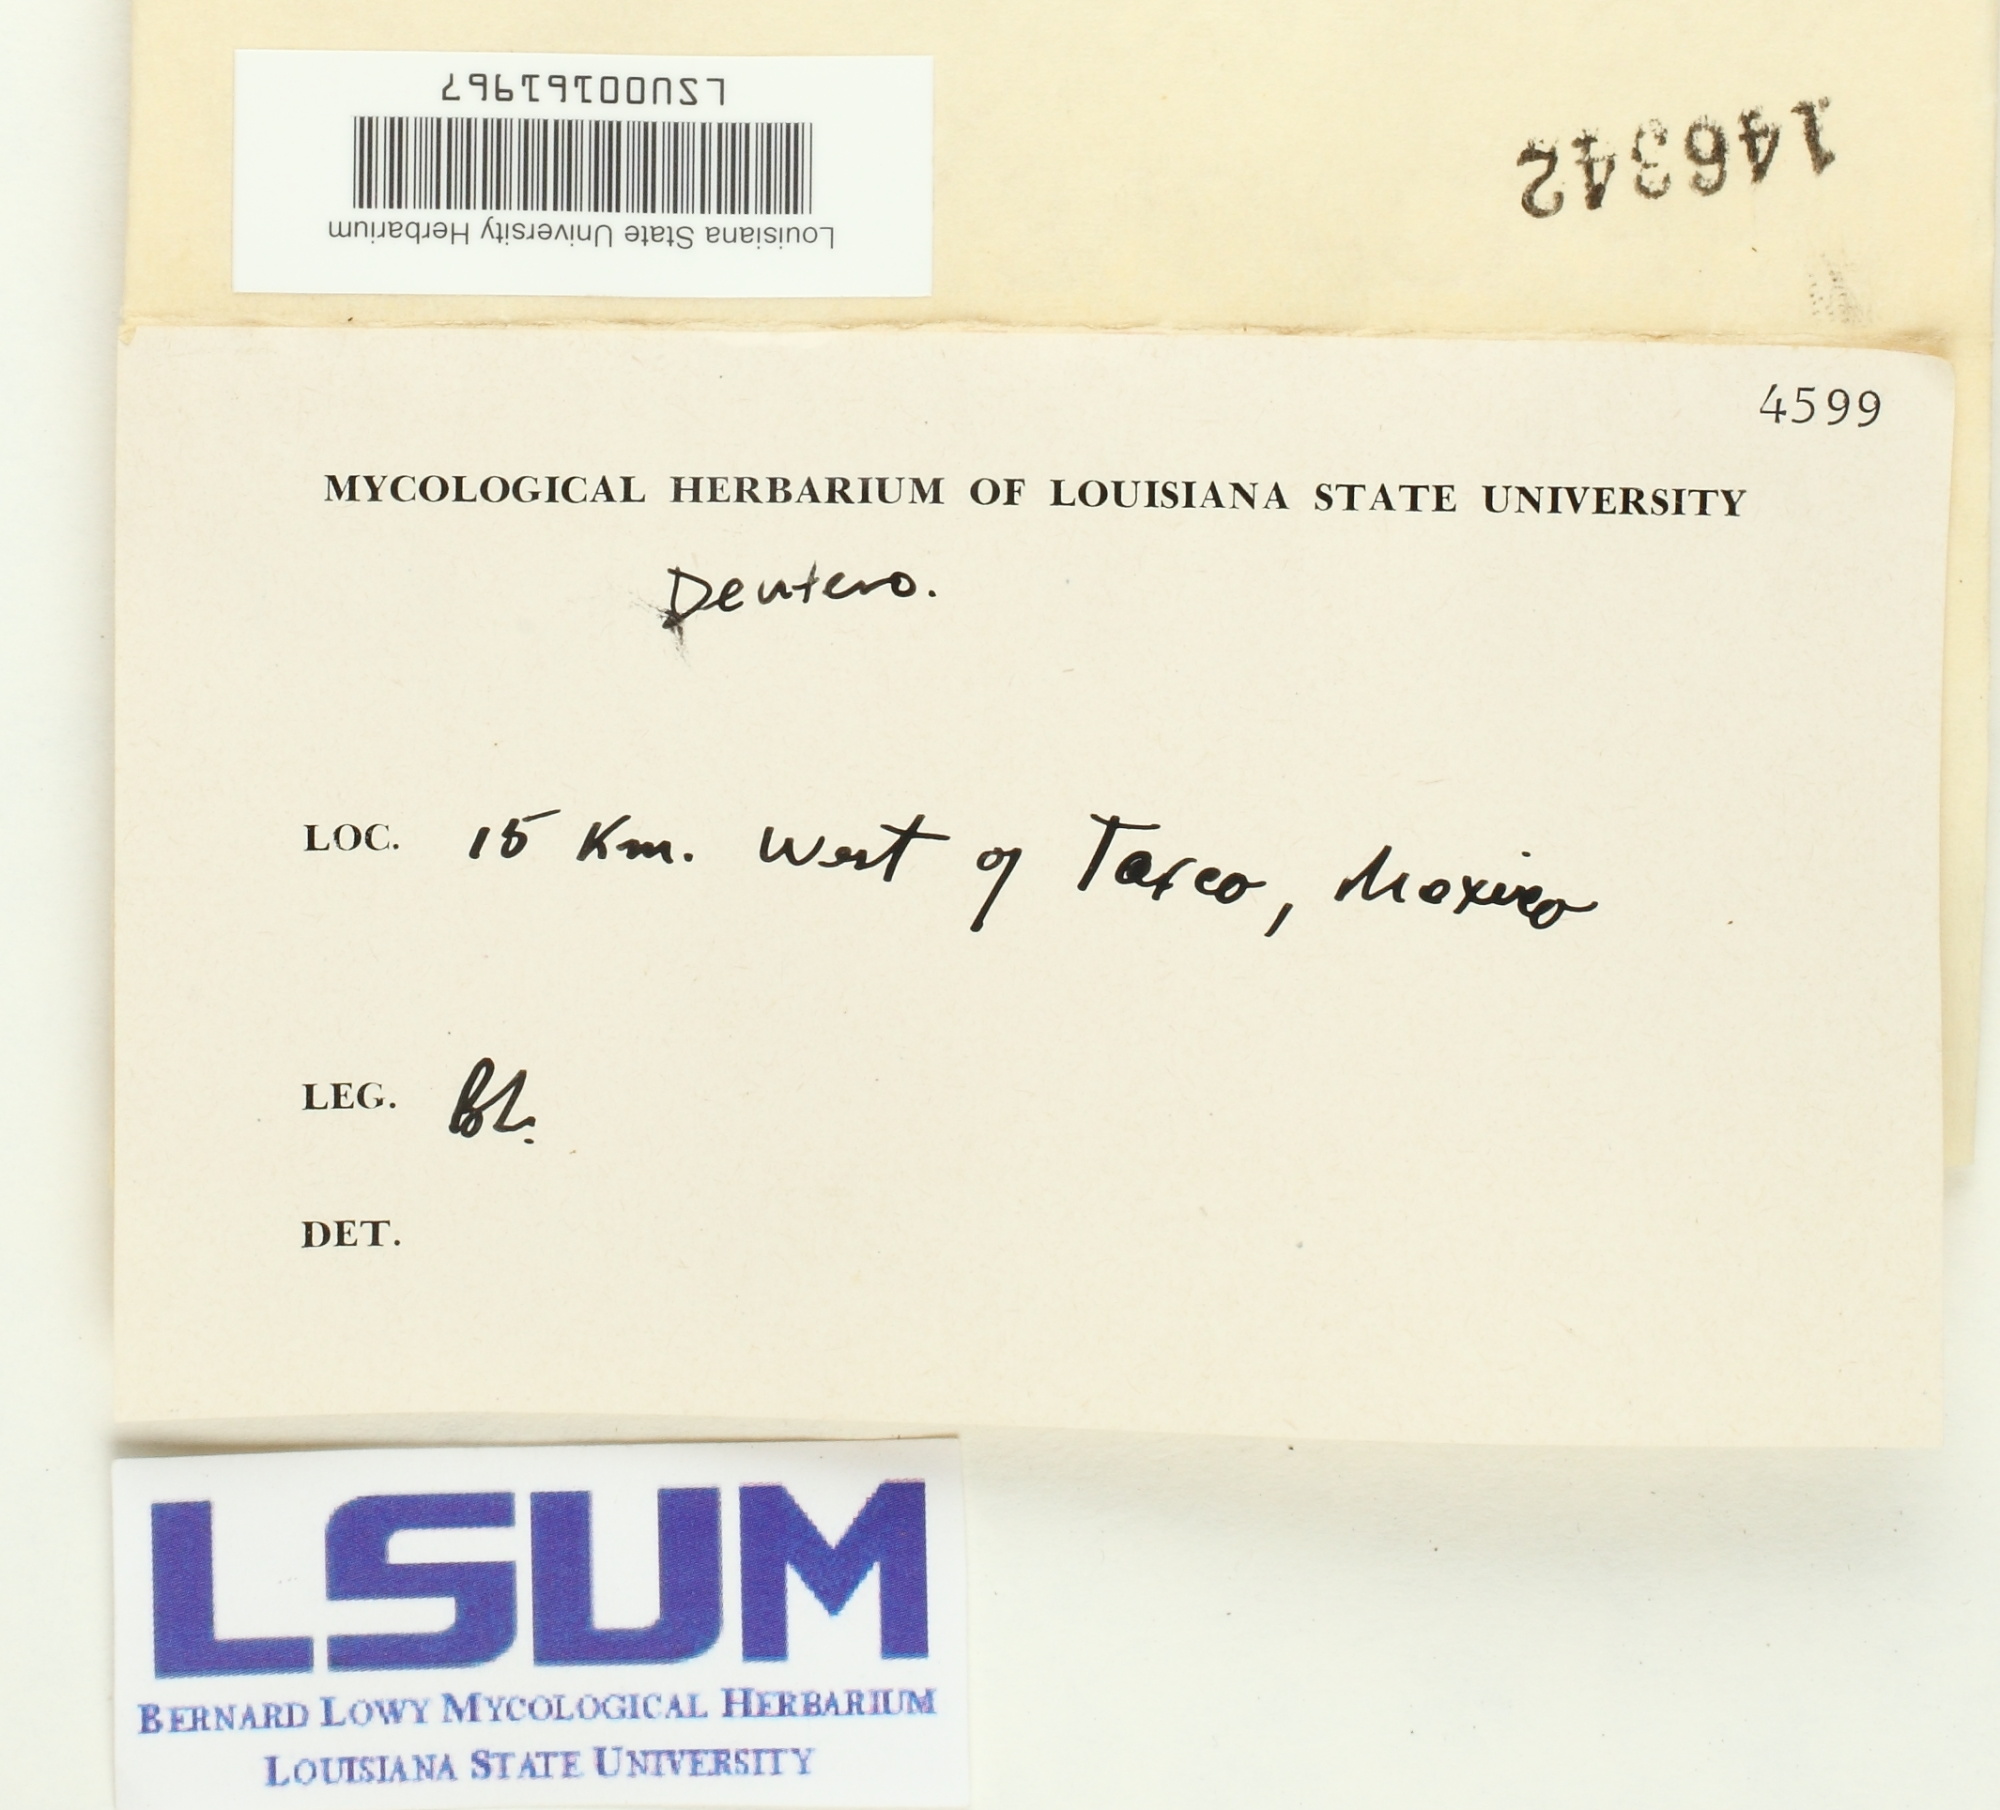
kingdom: Fungi
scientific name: Fungi
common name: Fungi
